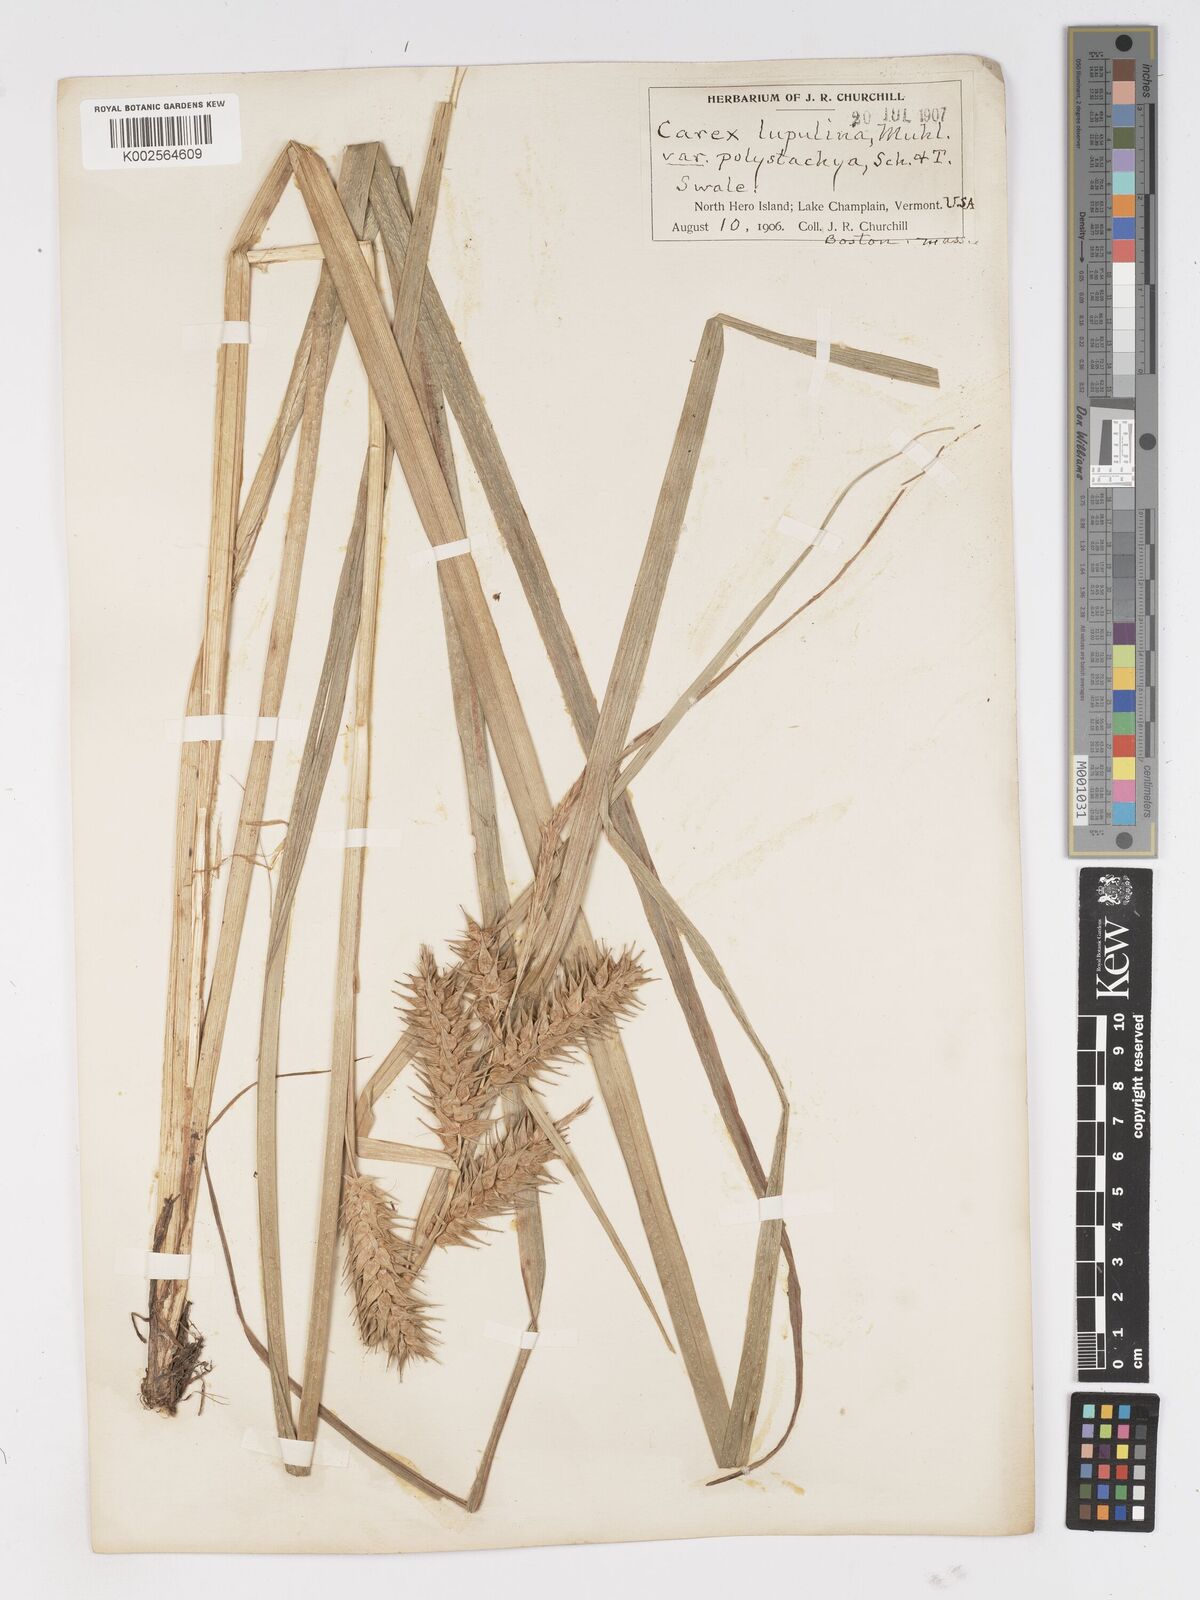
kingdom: Plantae
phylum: Tracheophyta
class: Liliopsida
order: Poales
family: Cyperaceae
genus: Carex
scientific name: Carex lupuliformis
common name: False hop sedge
